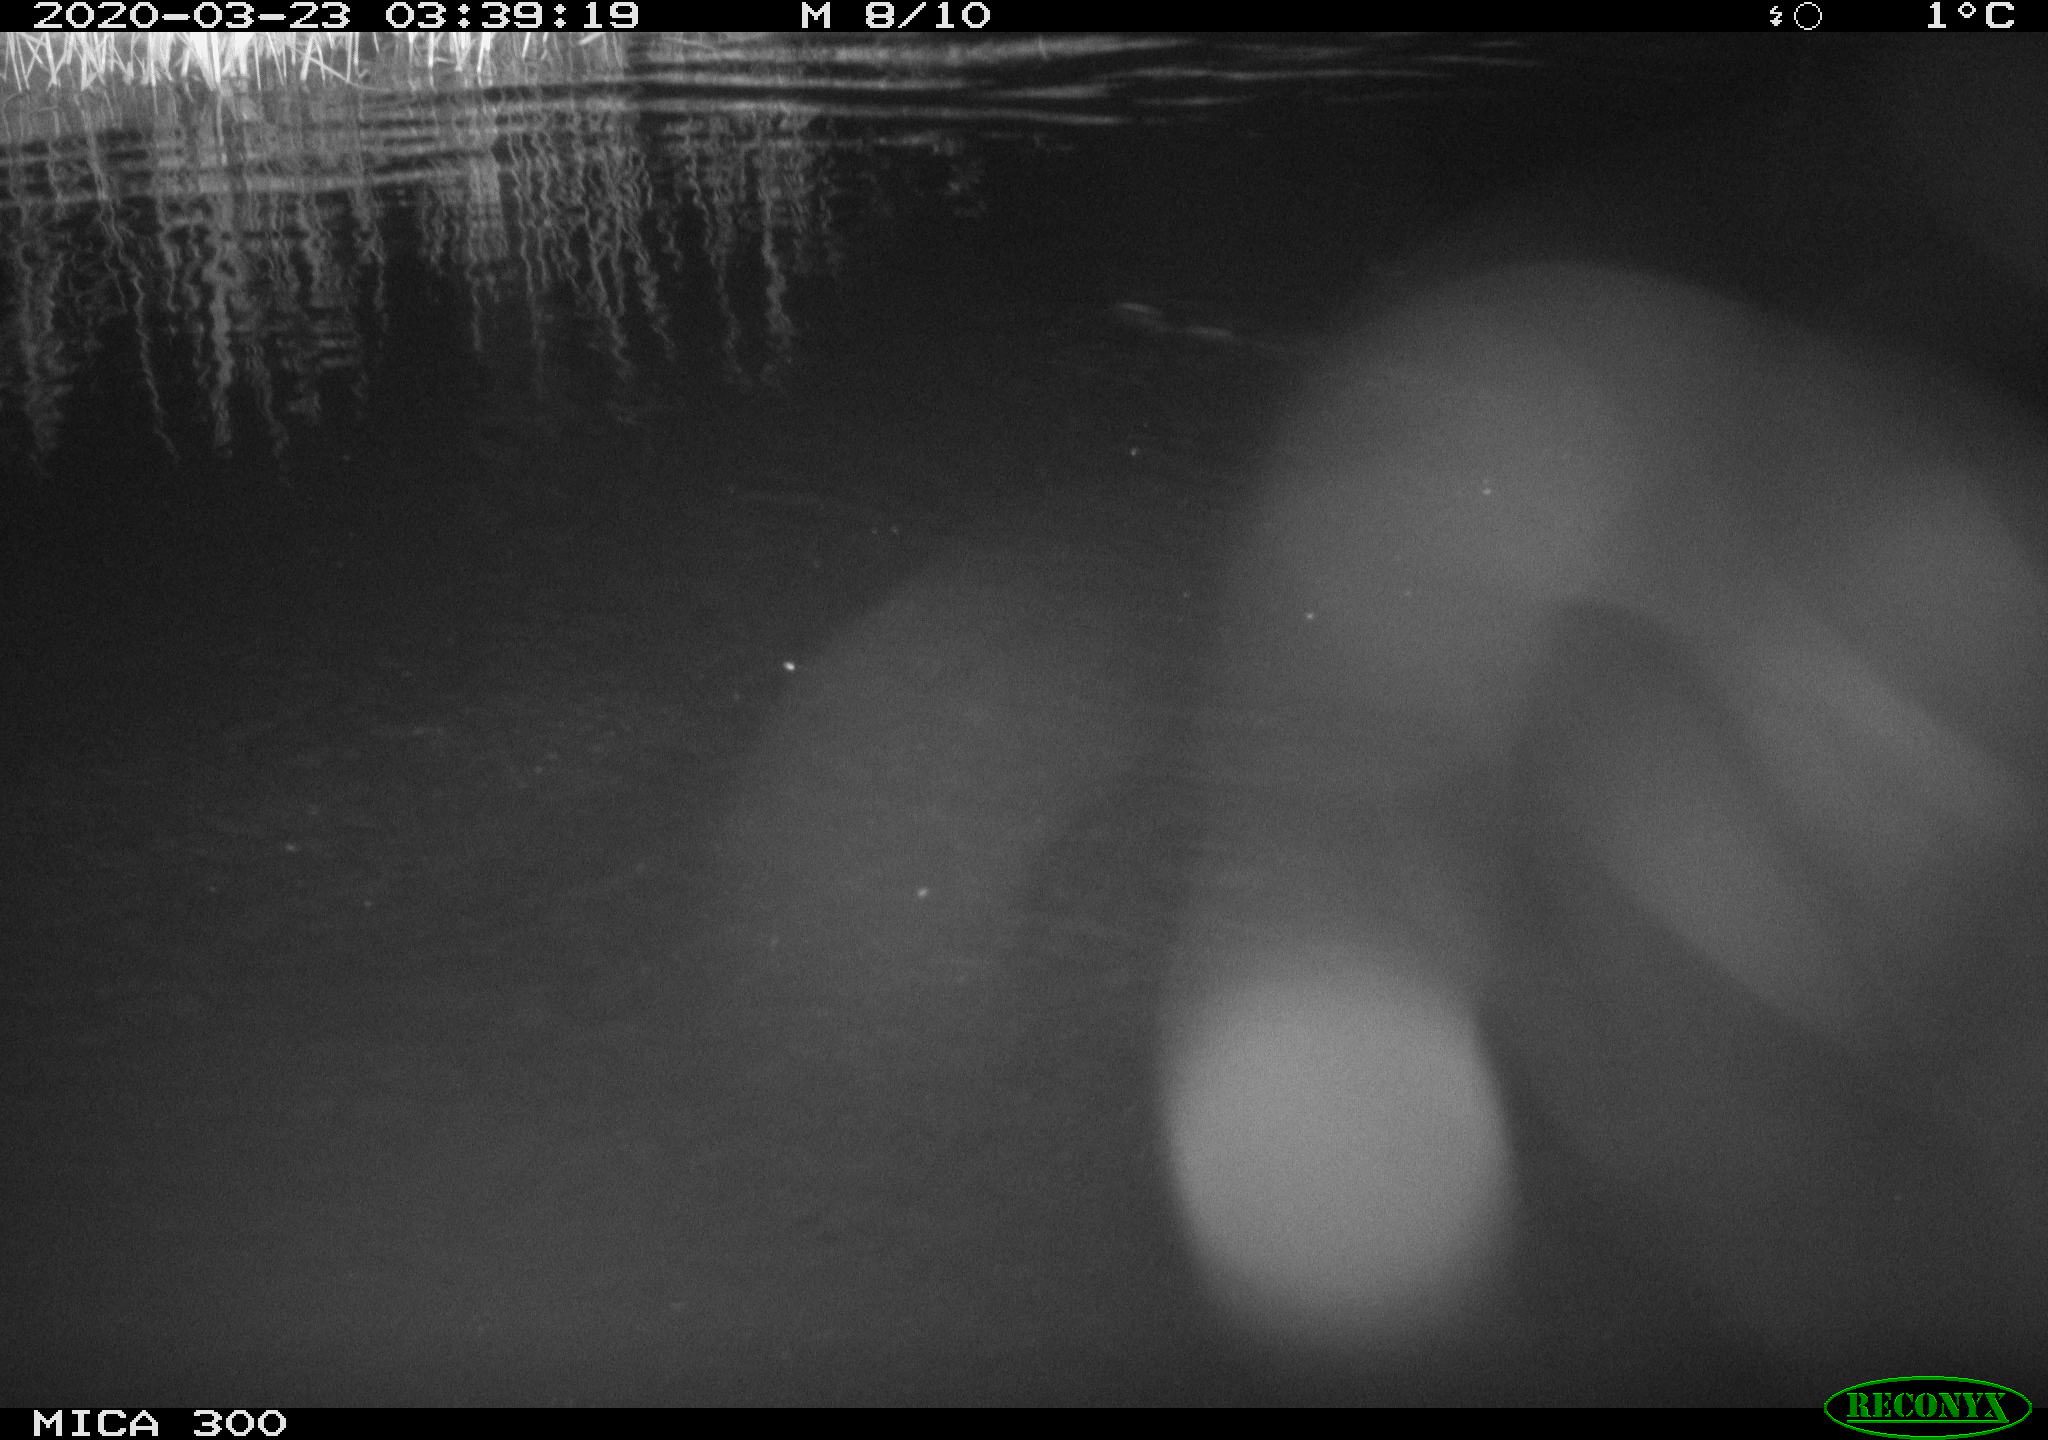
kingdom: Animalia
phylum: Chordata
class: Mammalia
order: Rodentia
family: Castoridae
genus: Castor
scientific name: Castor fiber
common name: Eurasian beaver
